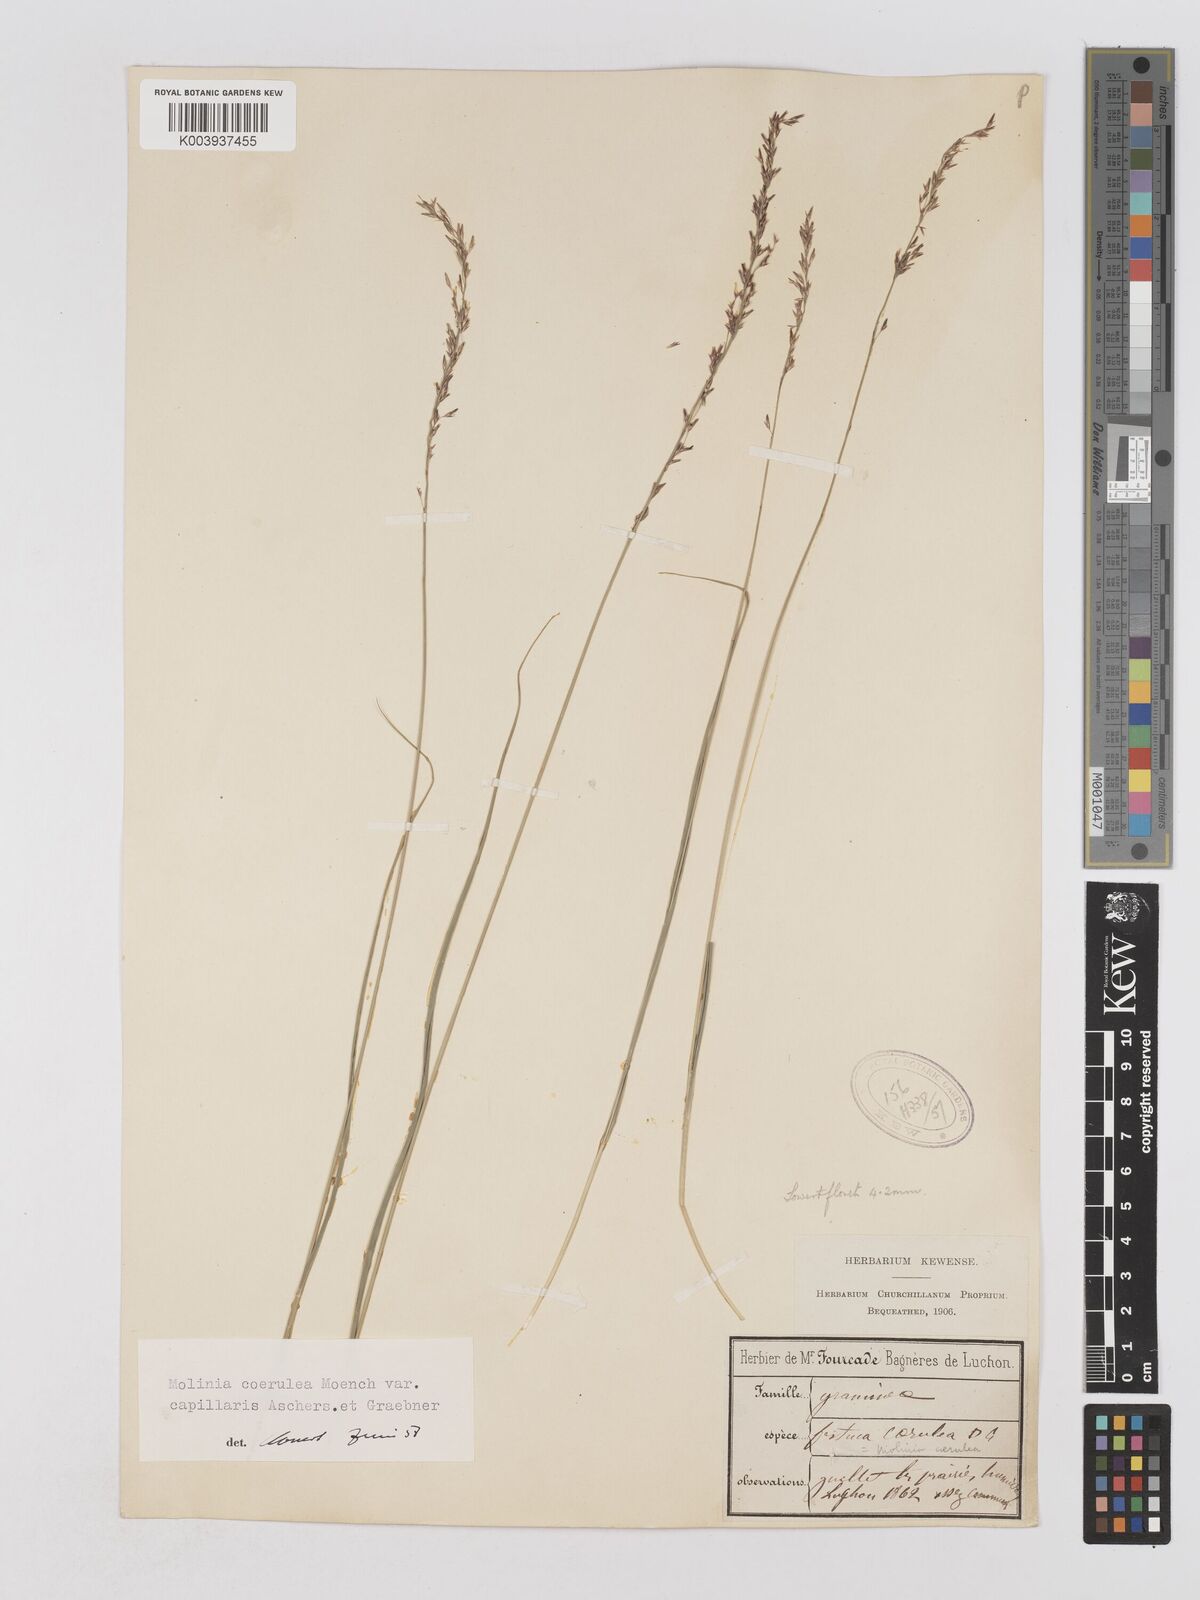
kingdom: Plantae
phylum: Tracheophyta
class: Liliopsida
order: Poales
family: Poaceae
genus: Molinia
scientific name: Molinia caerulea
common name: Purple moor-grass
